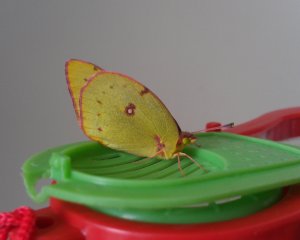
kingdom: Animalia
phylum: Arthropoda
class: Insecta
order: Lepidoptera
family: Pieridae
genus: Colias
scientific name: Colias philodice
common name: Clouded Sulphur
